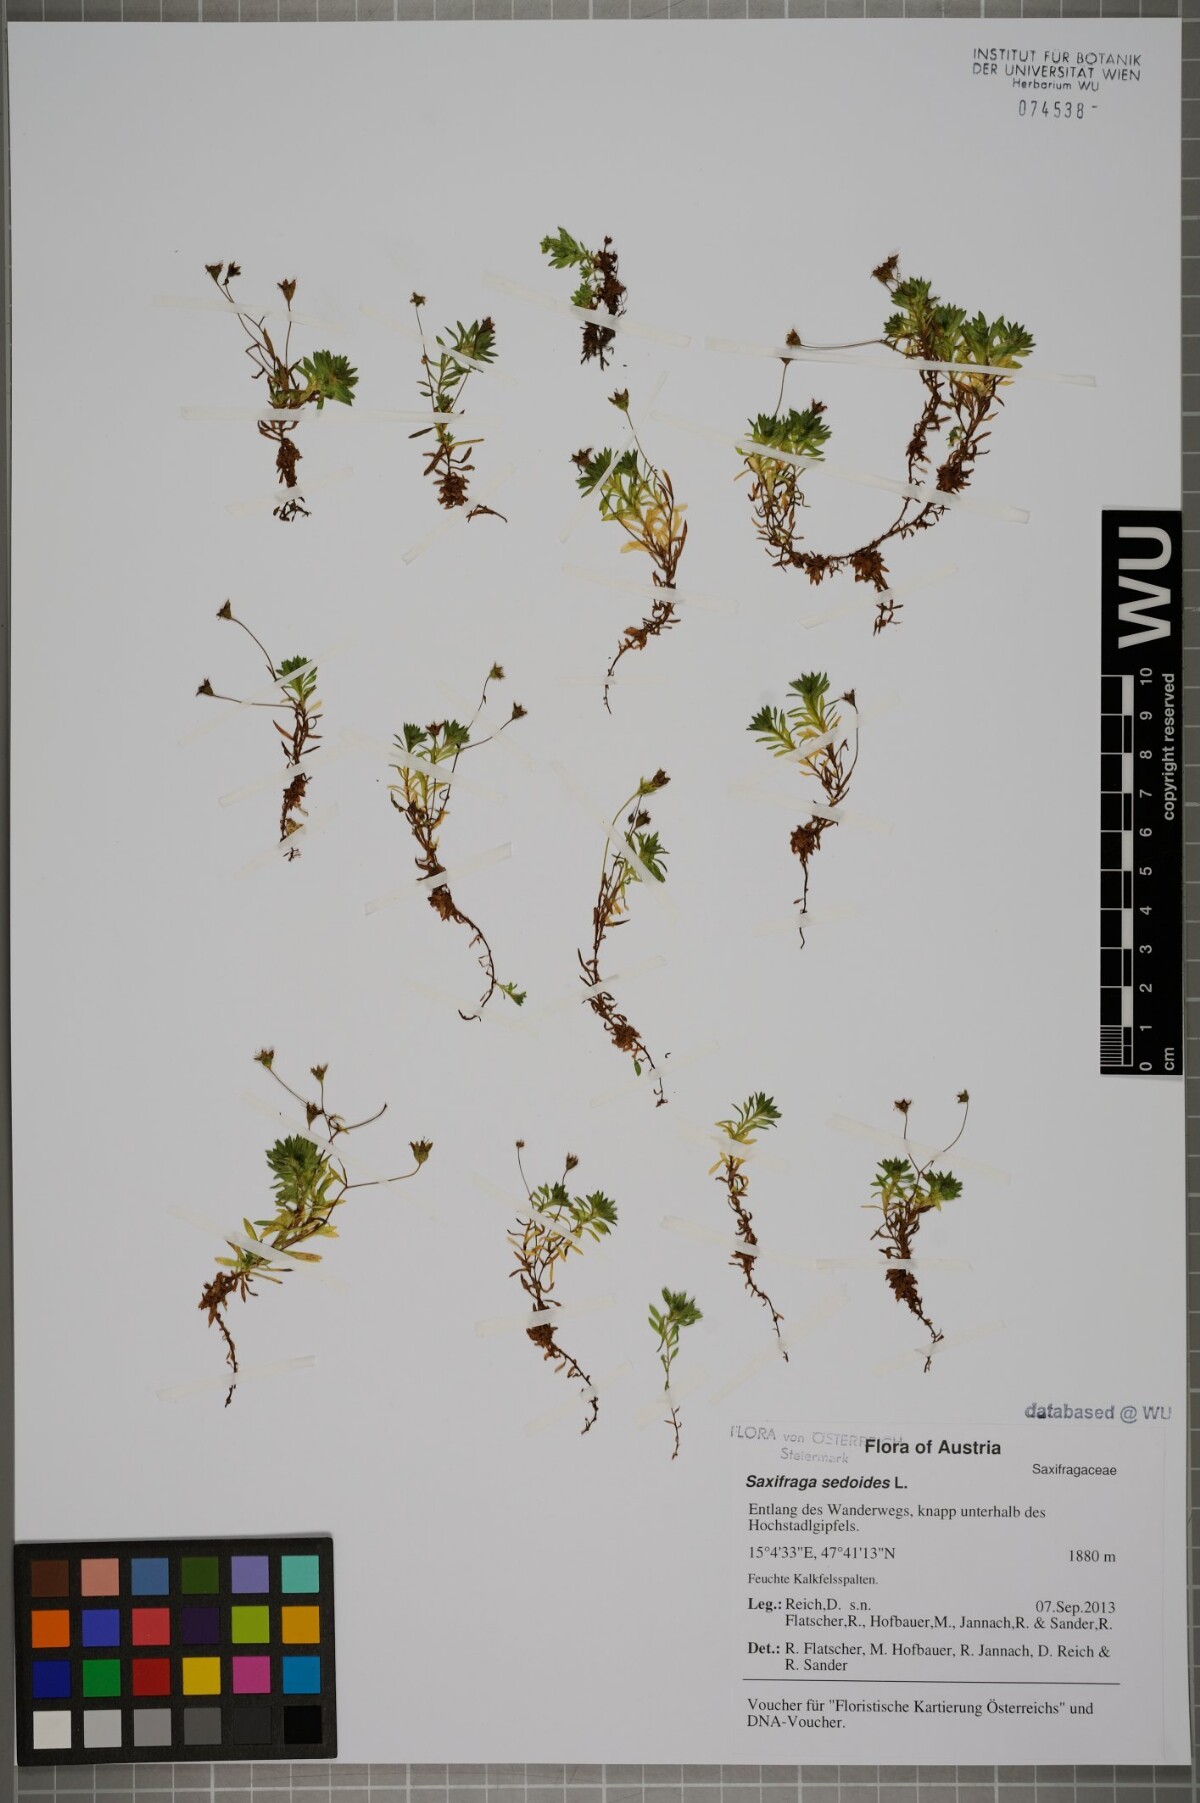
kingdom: Plantae
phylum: Tracheophyta
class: Magnoliopsida
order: Saxifragales
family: Saxifragaceae
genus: Saxifraga
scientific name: Saxifraga sedoides
